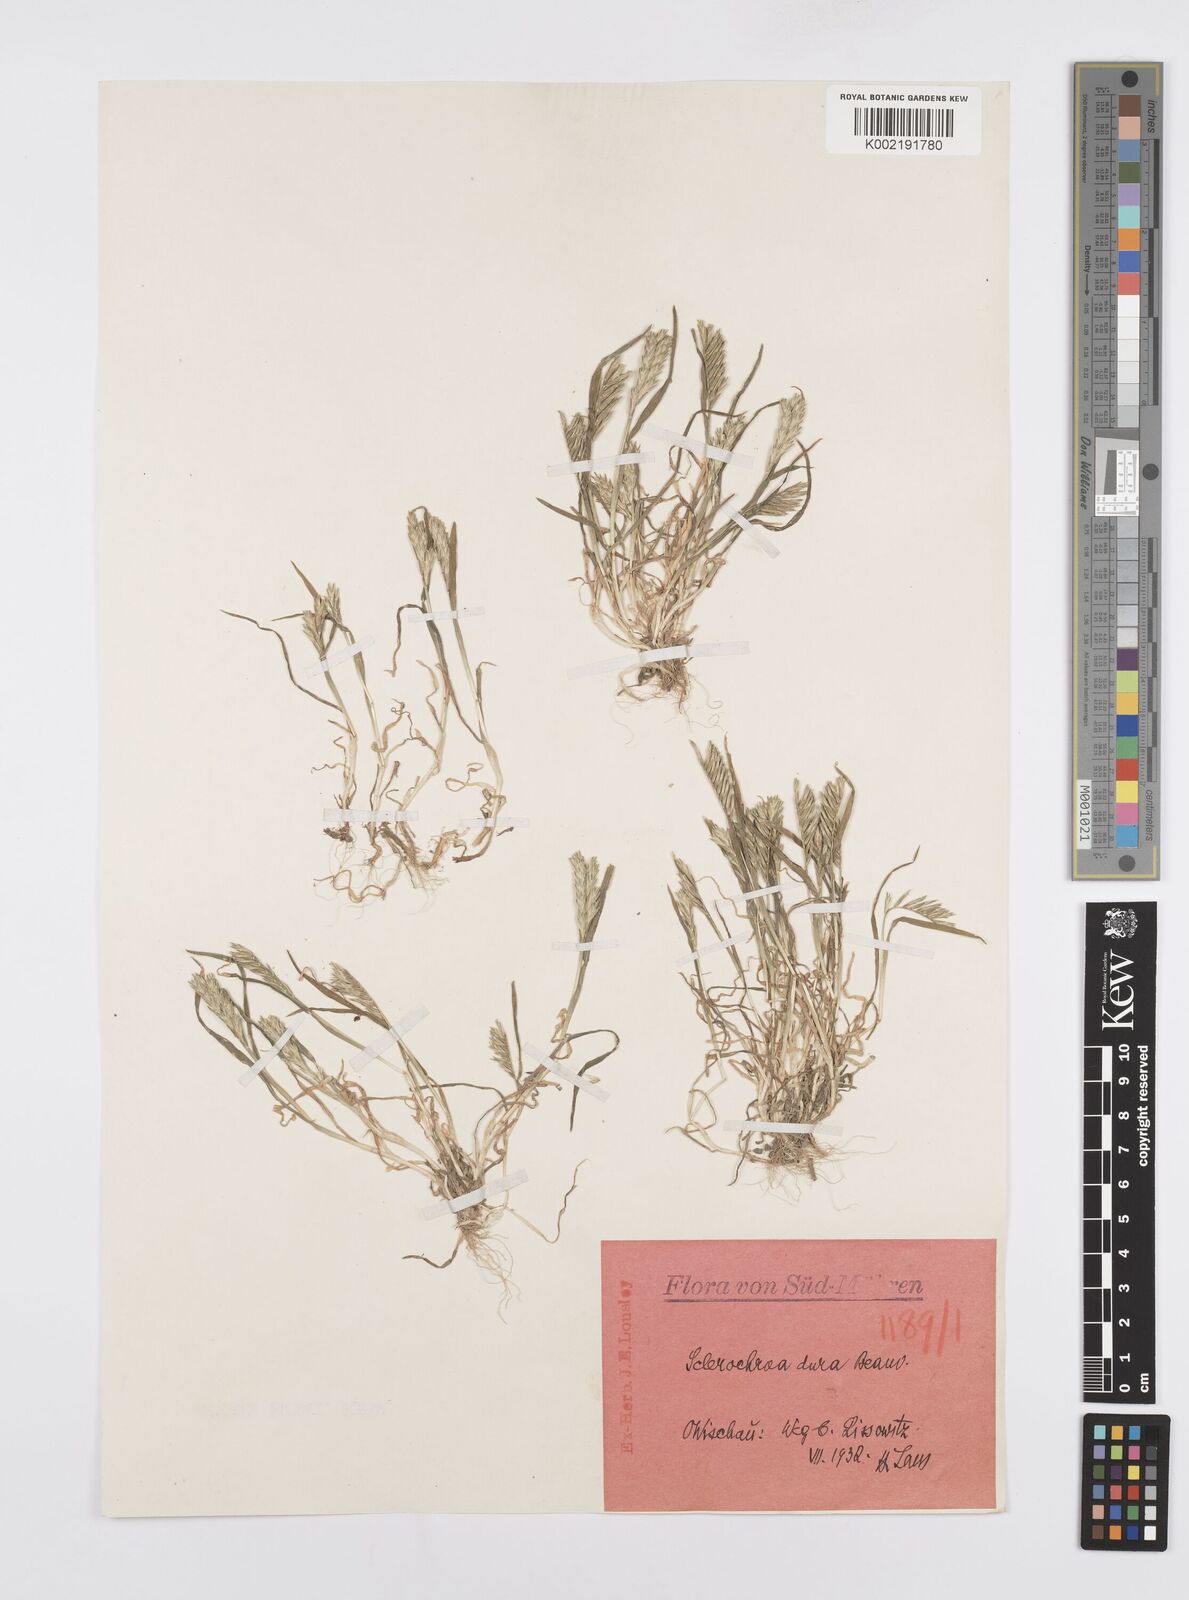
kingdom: Plantae
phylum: Tracheophyta
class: Liliopsida
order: Poales
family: Poaceae
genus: Sclerochloa
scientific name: Sclerochloa dura
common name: Common hardgrass
